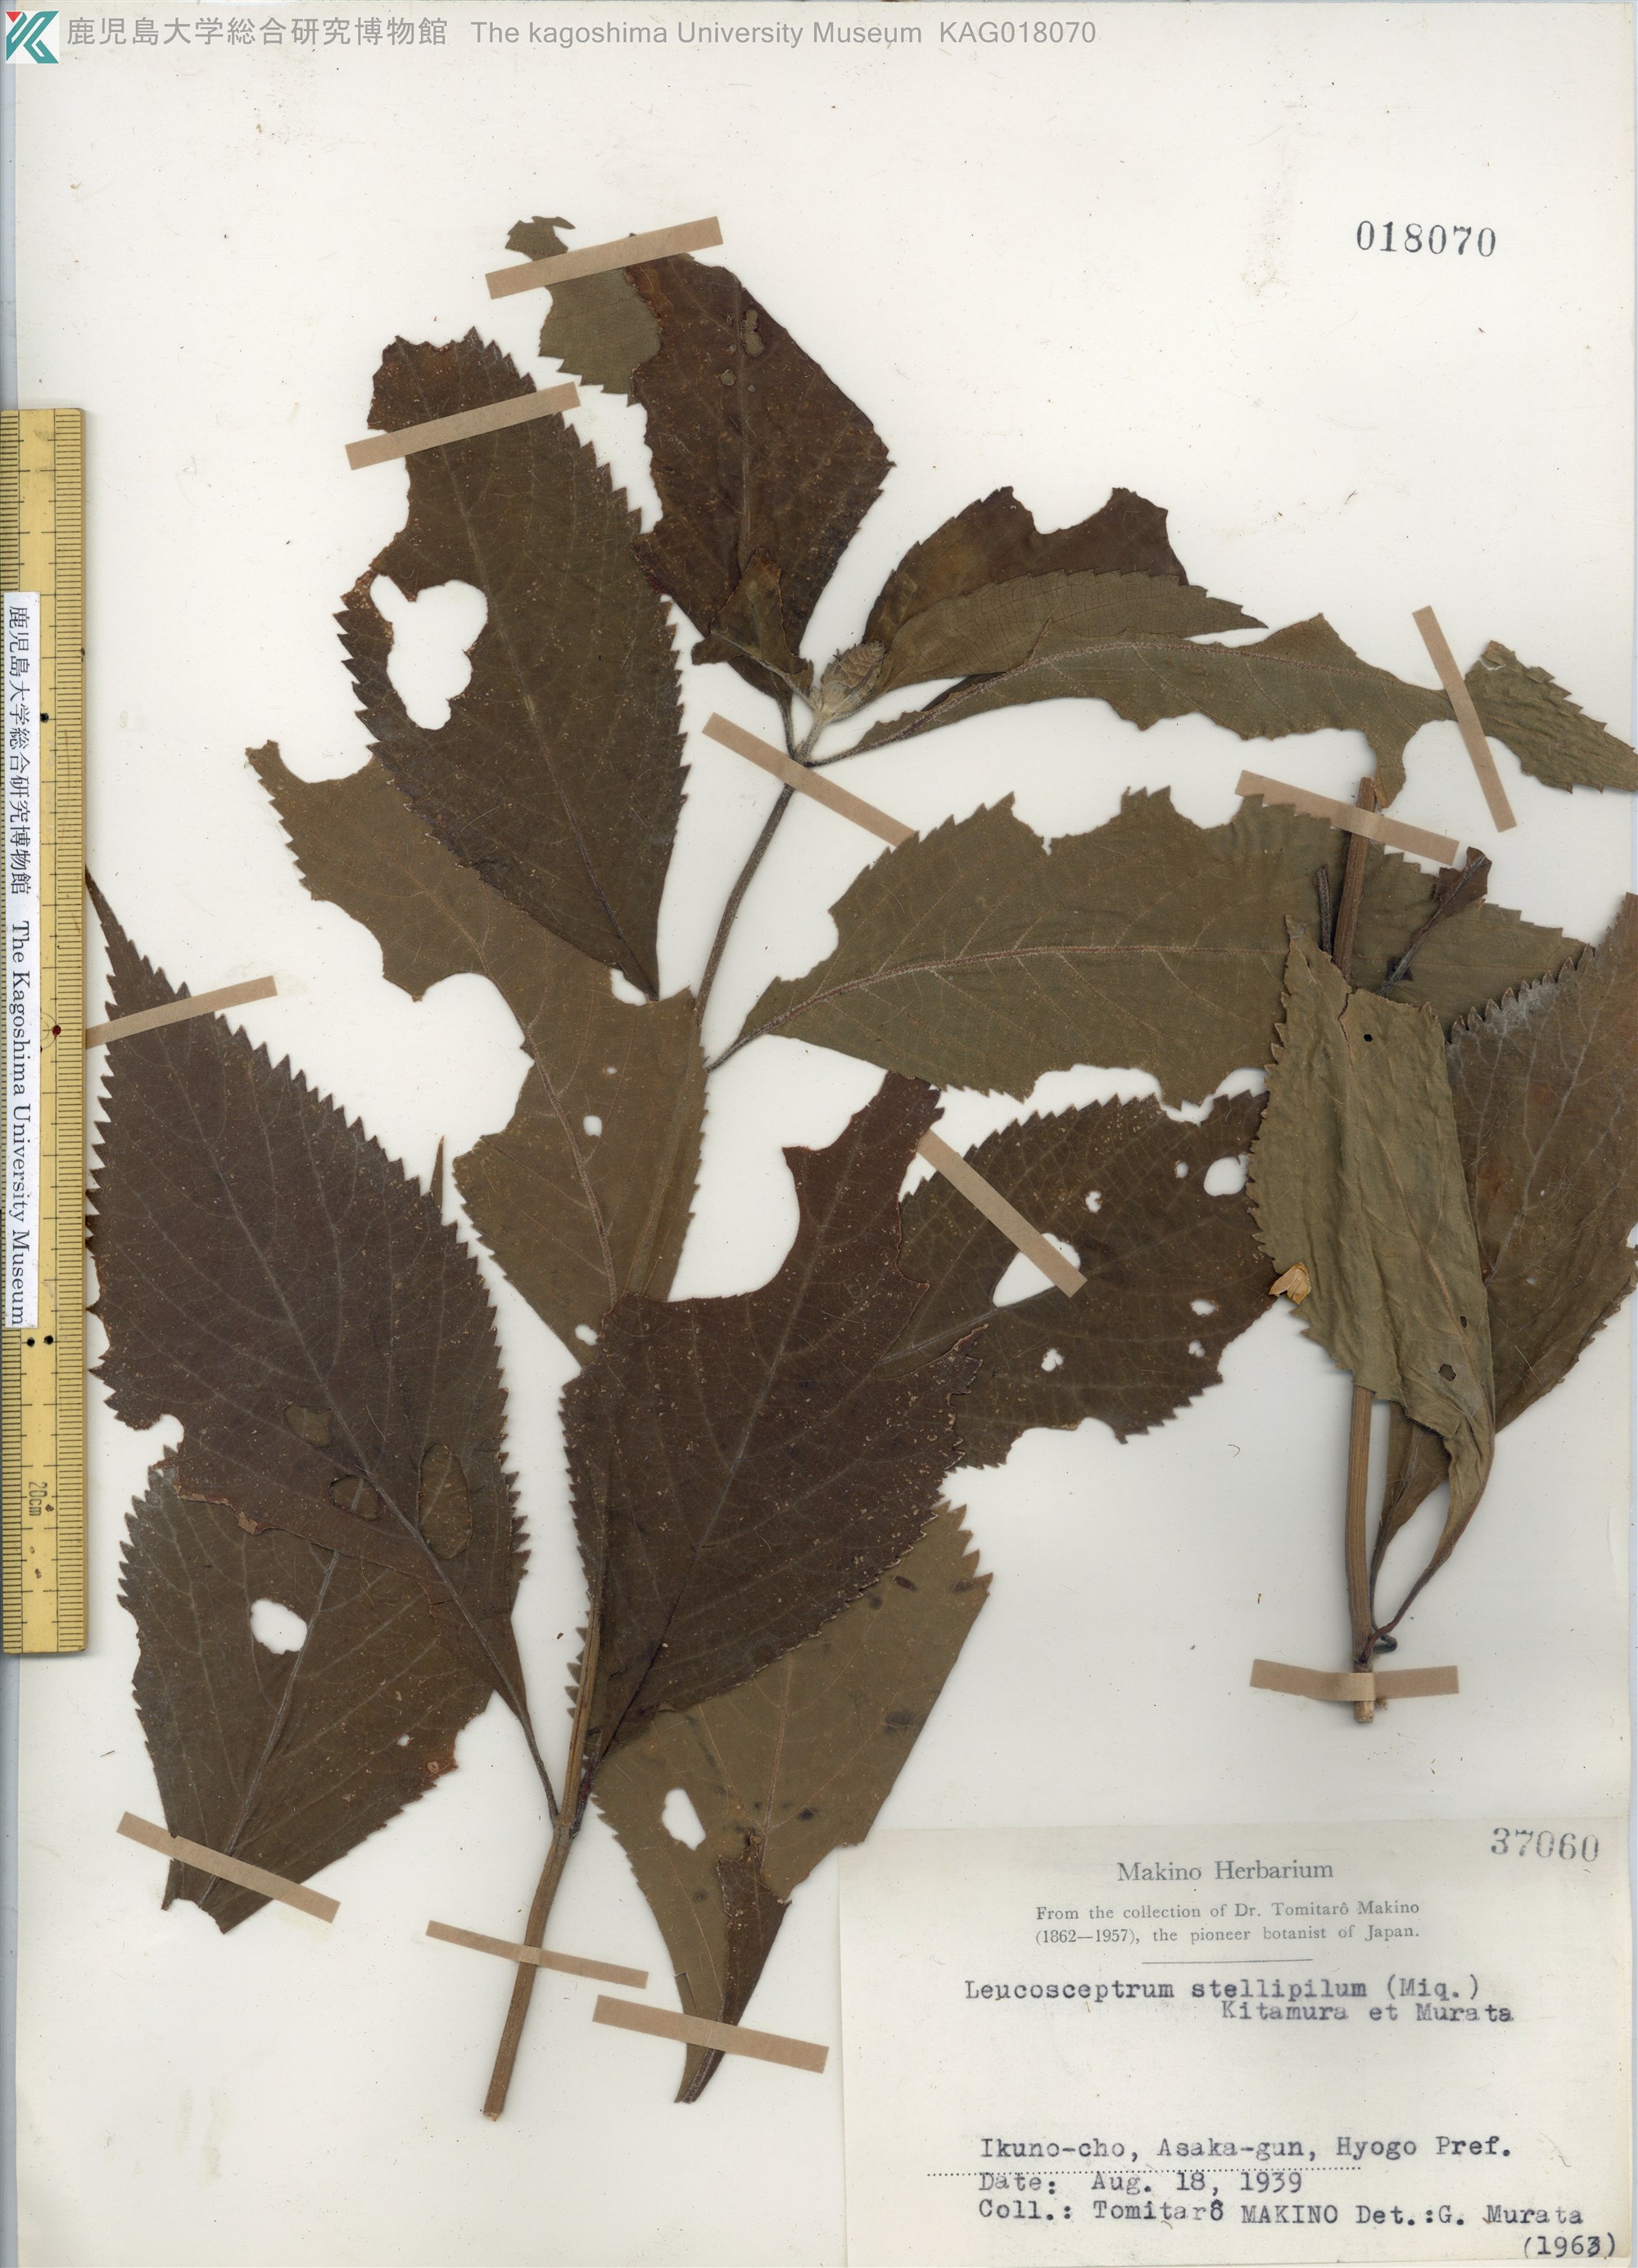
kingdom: Plantae
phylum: Tracheophyta
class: Magnoliopsida
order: Lamiales
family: Lamiaceae
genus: Comanthosphace
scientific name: Comanthosphace stellipila
